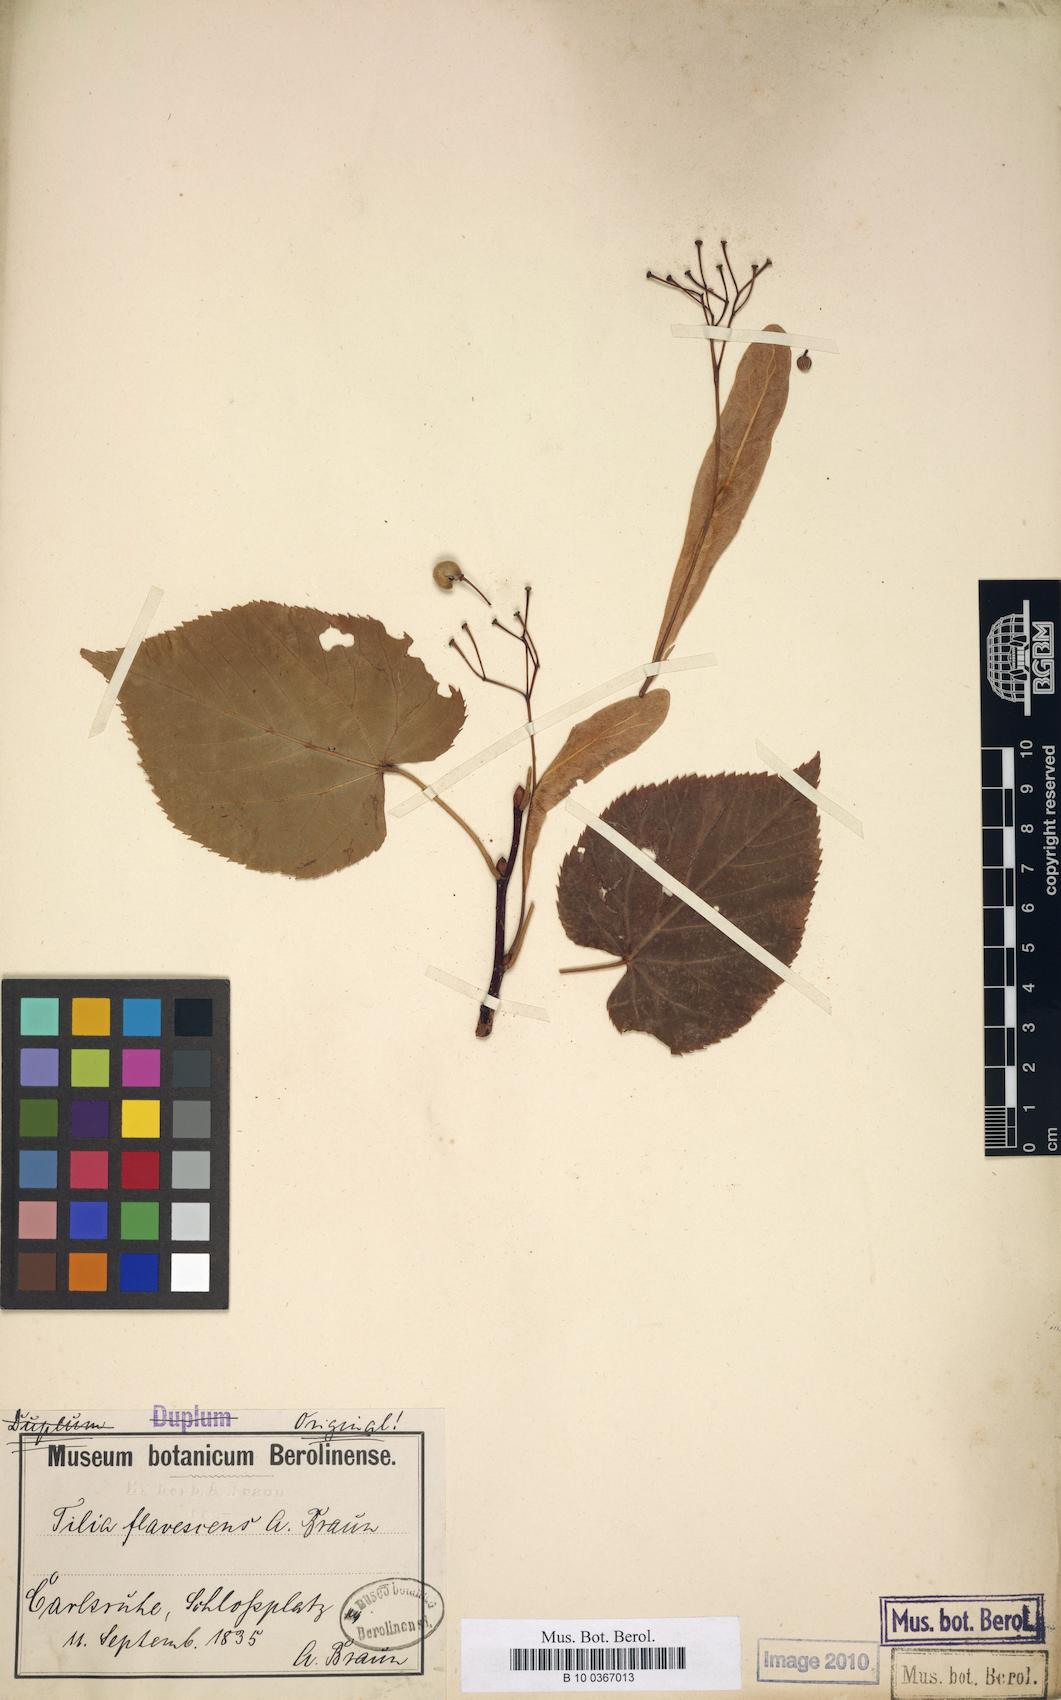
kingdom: Plantae
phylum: Tracheophyta
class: Magnoliopsida
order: Malvales
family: Malvaceae
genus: Tilia
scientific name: Tilia flavescens
